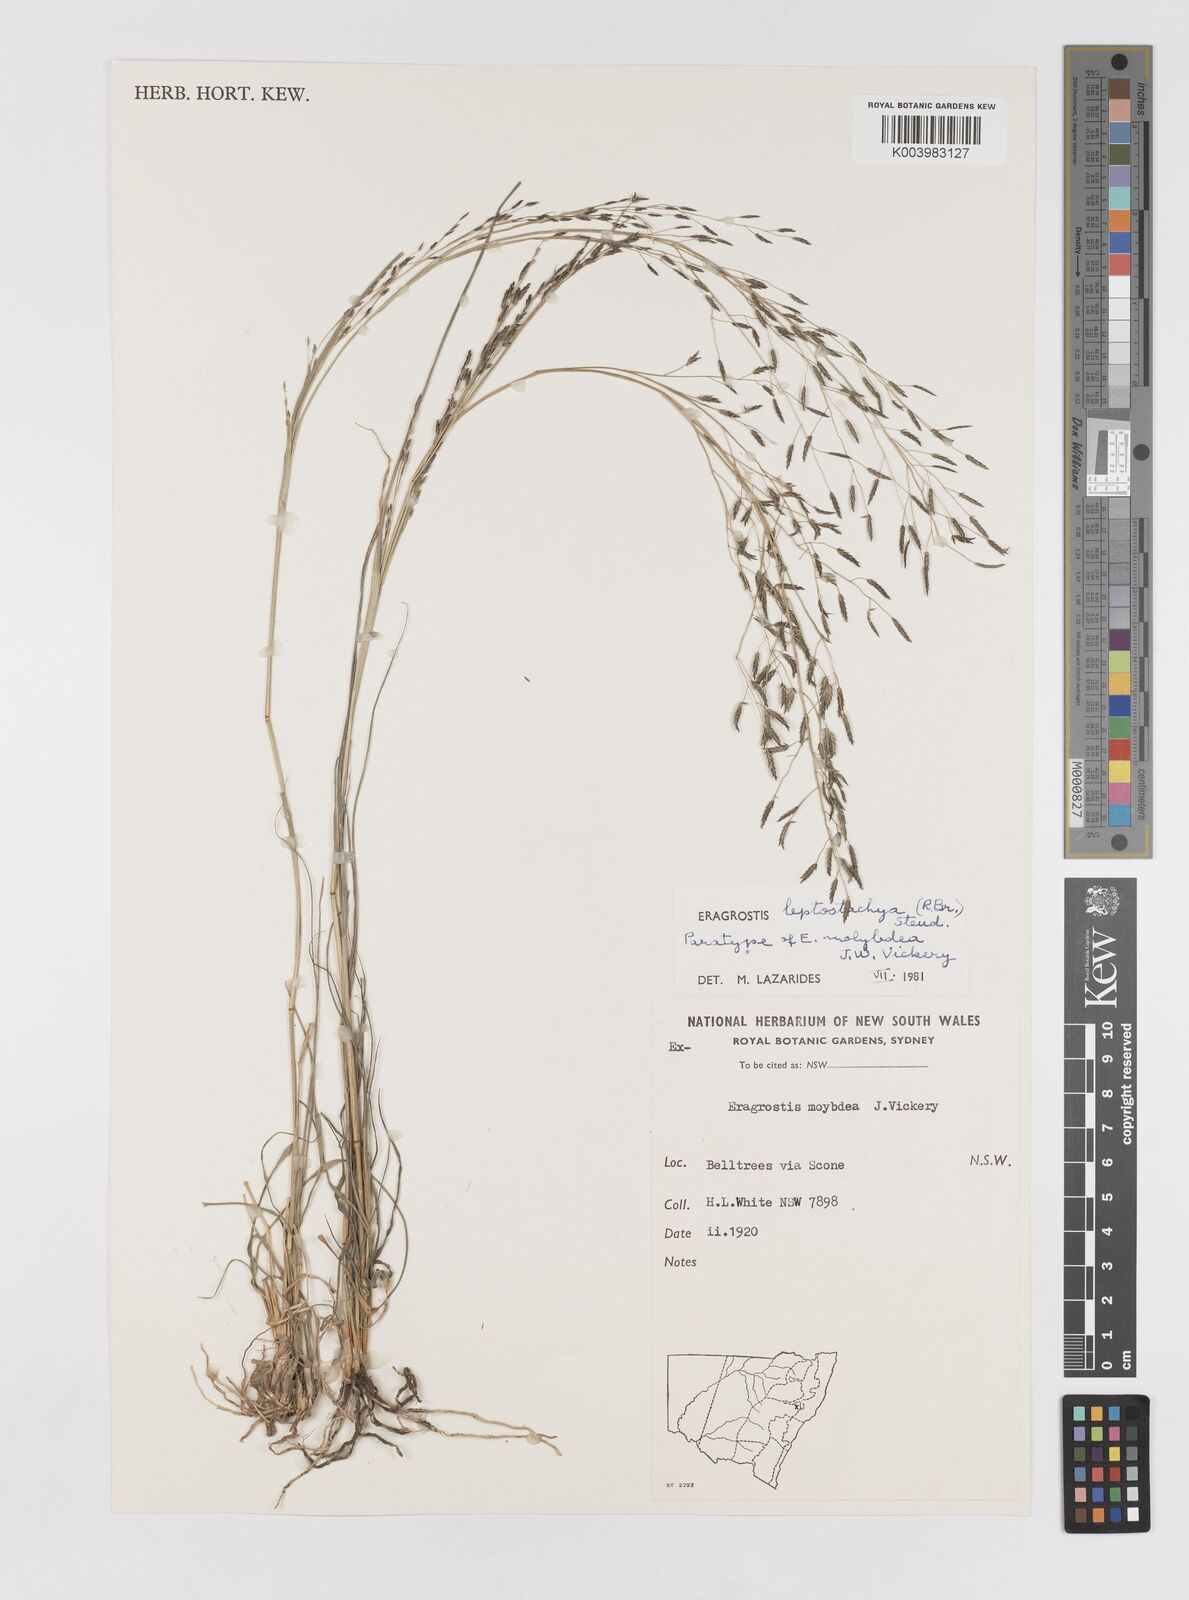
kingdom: Plantae
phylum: Tracheophyta
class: Liliopsida
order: Poales
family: Poaceae
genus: Eragrostis
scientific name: Eragrostis leptostachya
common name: Australian lovegrass
